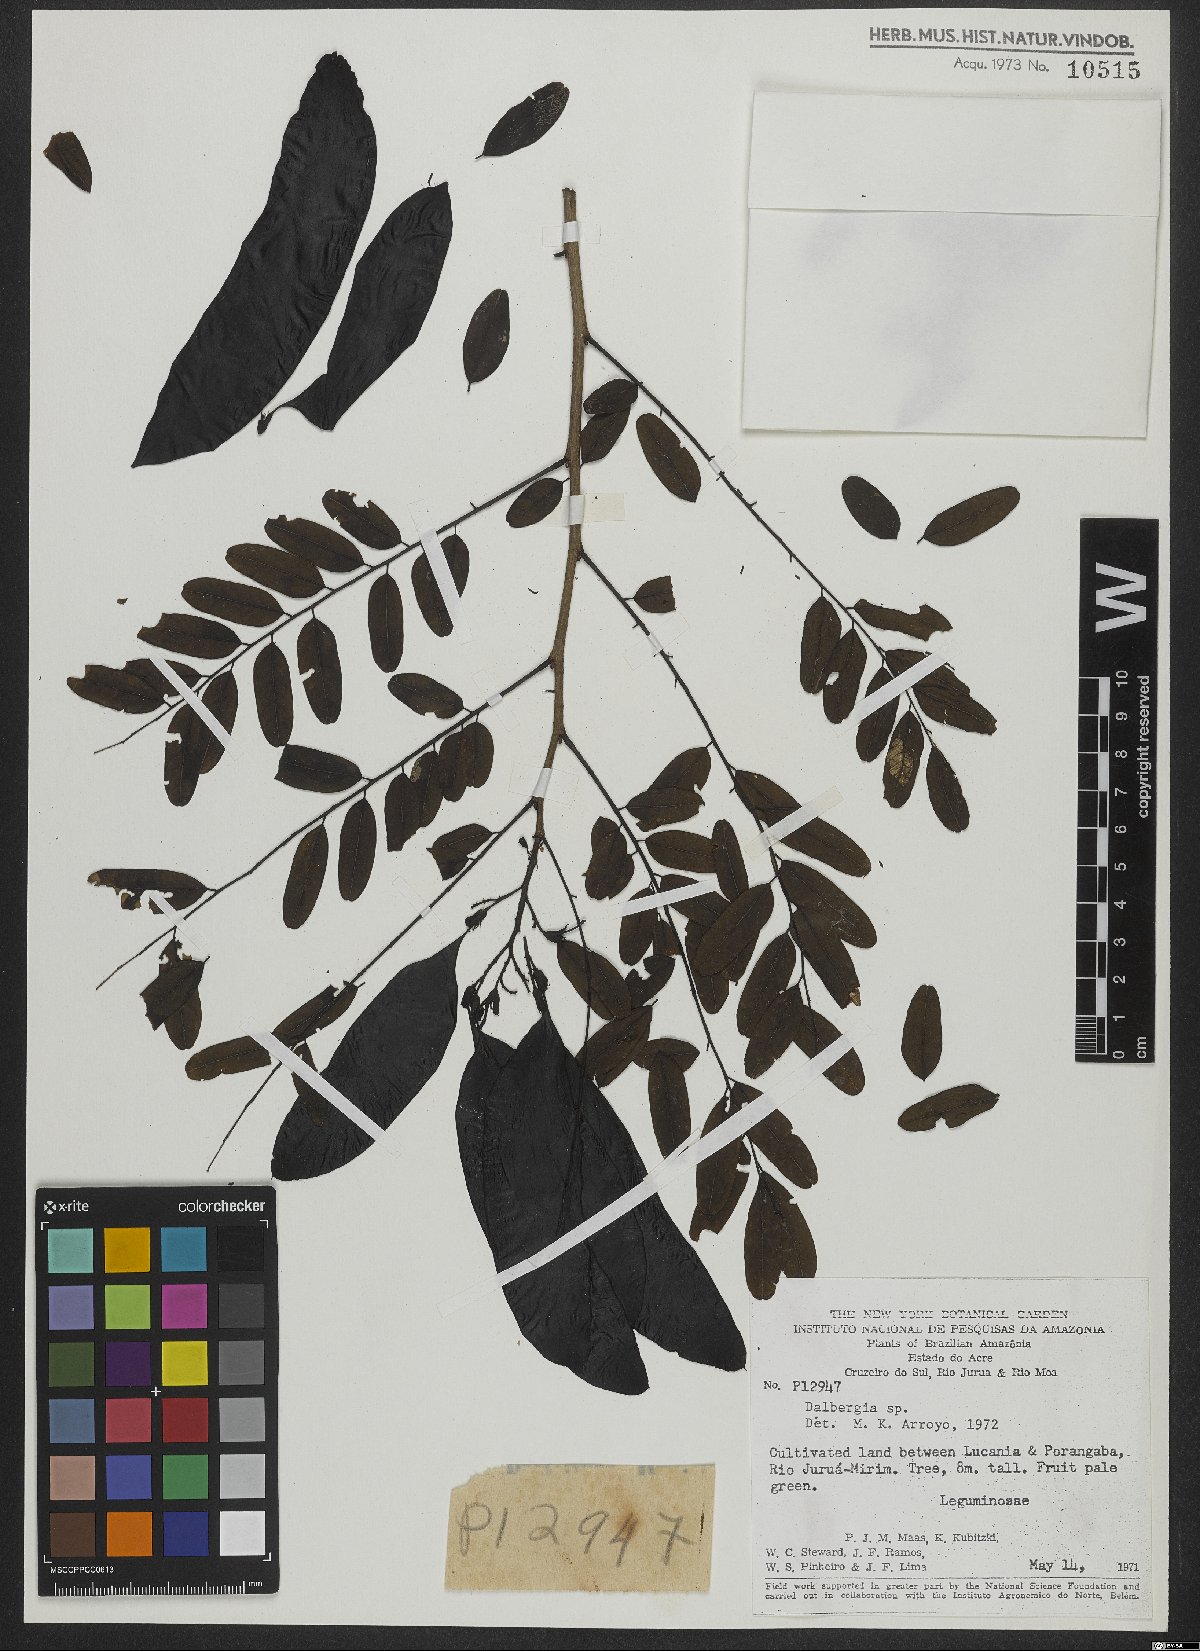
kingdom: Plantae
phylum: Tracheophyta
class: Magnoliopsida
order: Fabales
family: Fabaceae
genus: Dalbergia
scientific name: Dalbergia
